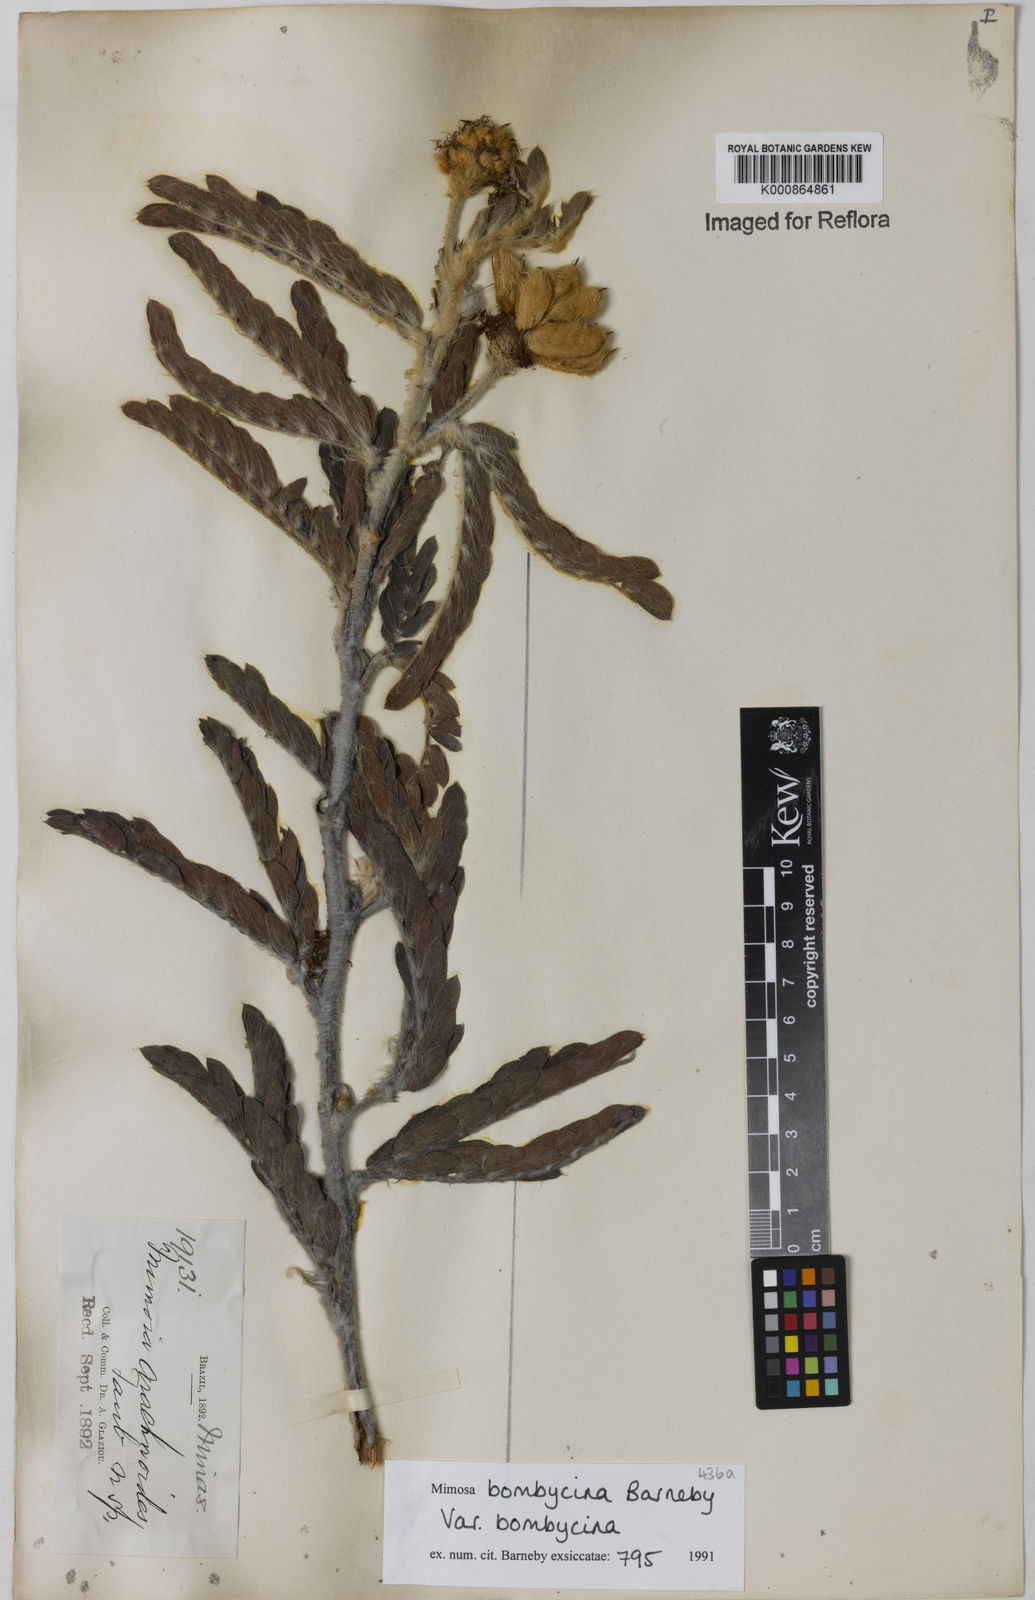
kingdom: Plantae
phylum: Tracheophyta
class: Magnoliopsida
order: Fabales
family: Fabaceae
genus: Mimosa
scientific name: Mimosa bombycina
